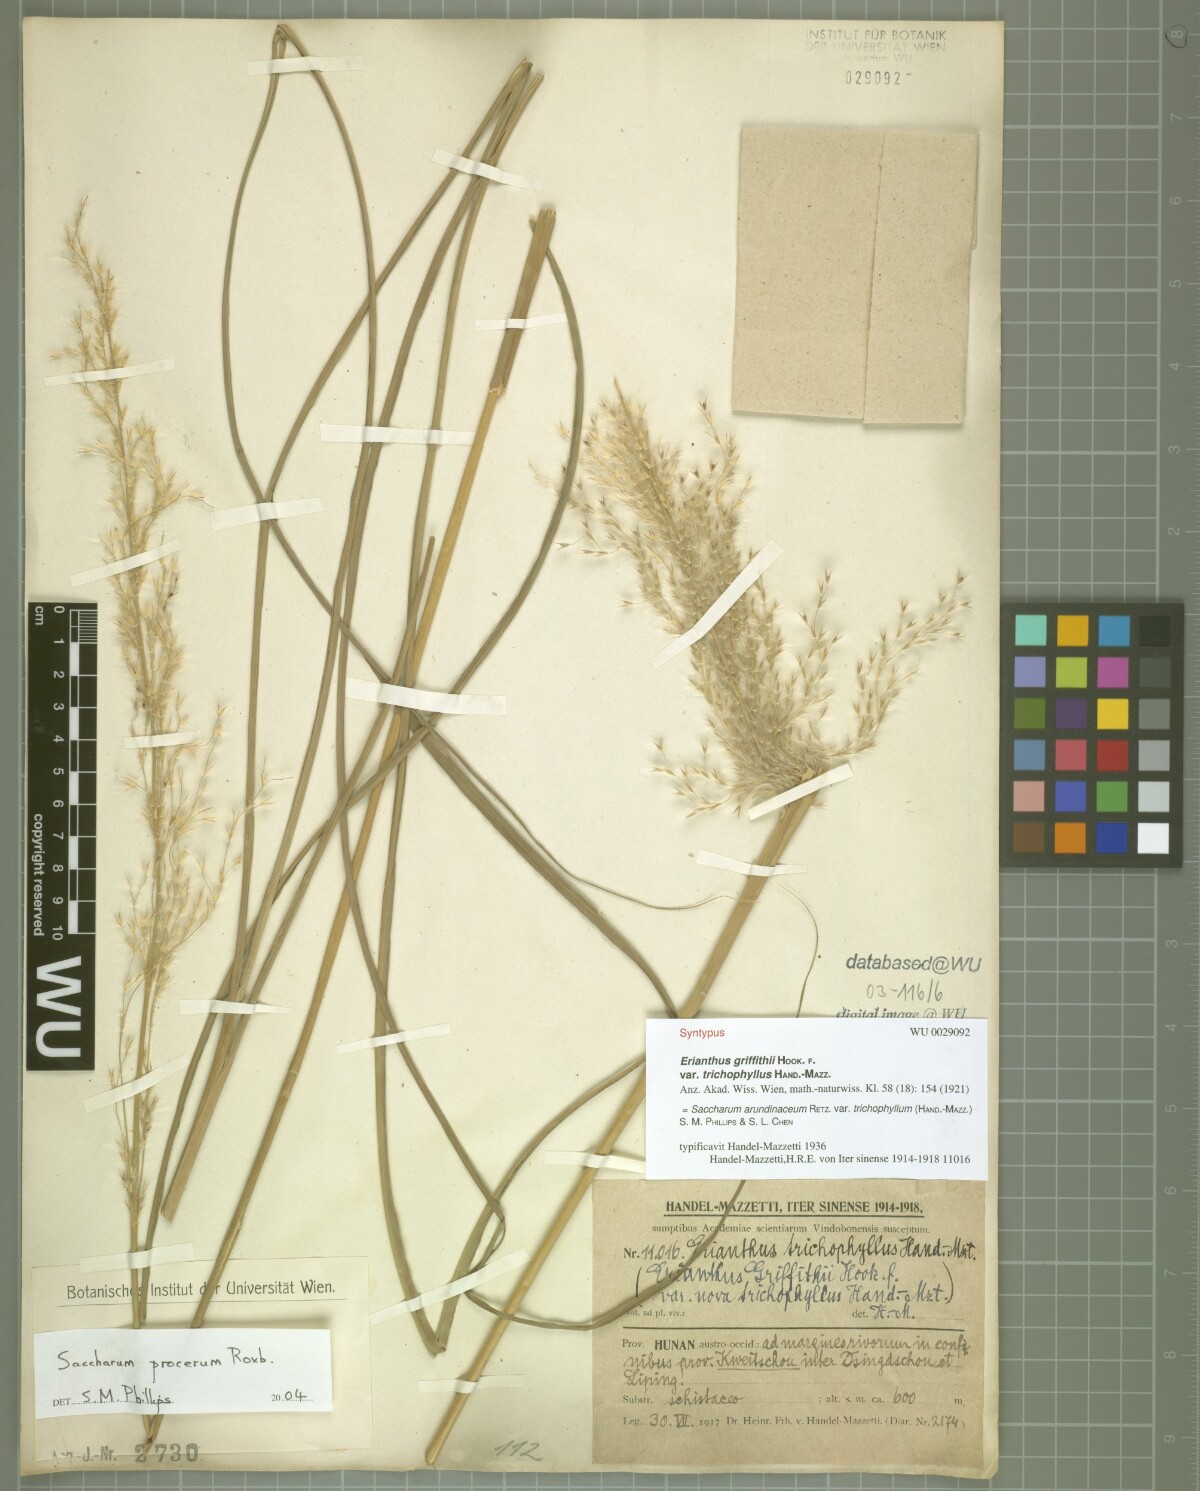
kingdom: Plantae
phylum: Tracheophyta
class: Liliopsida
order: Poales
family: Poaceae
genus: Tripidium
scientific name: Tripidium arundinaceum
